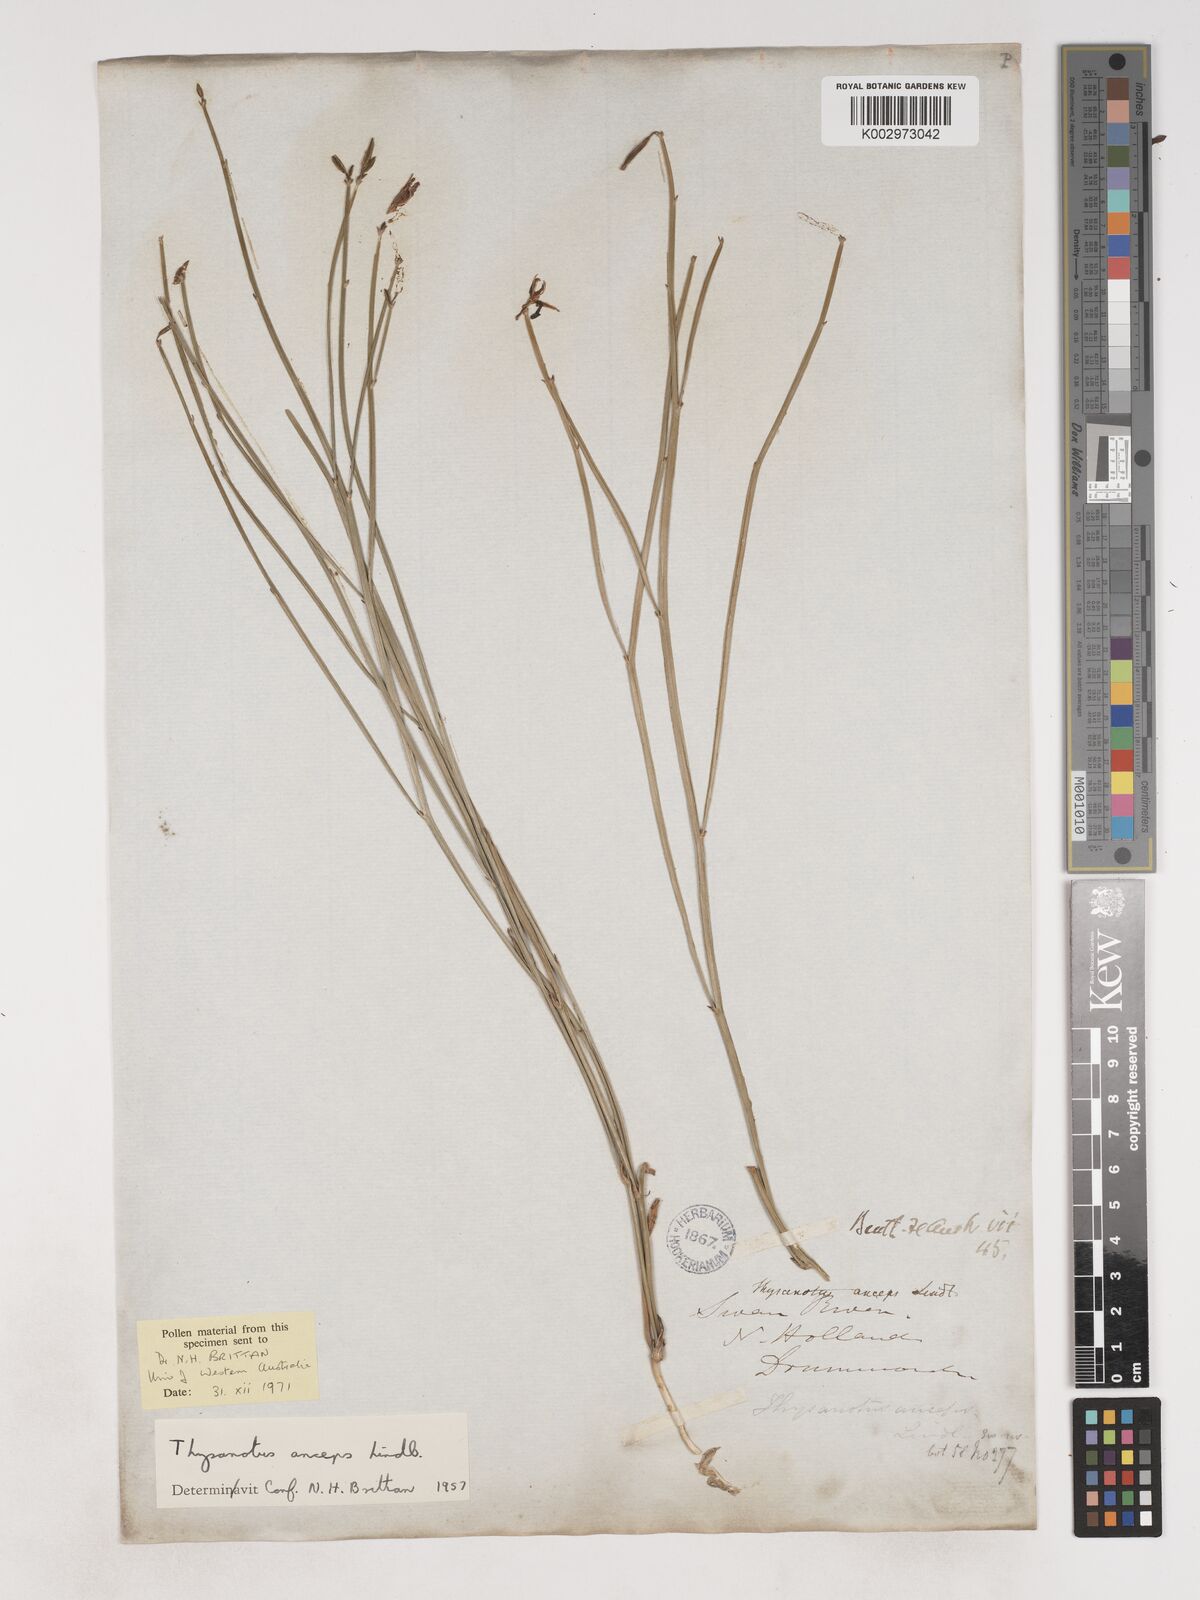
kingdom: Plantae
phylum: Tracheophyta
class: Liliopsida
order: Asparagales
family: Asparagaceae
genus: Thysanotus
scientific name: Thysanotus anceps
